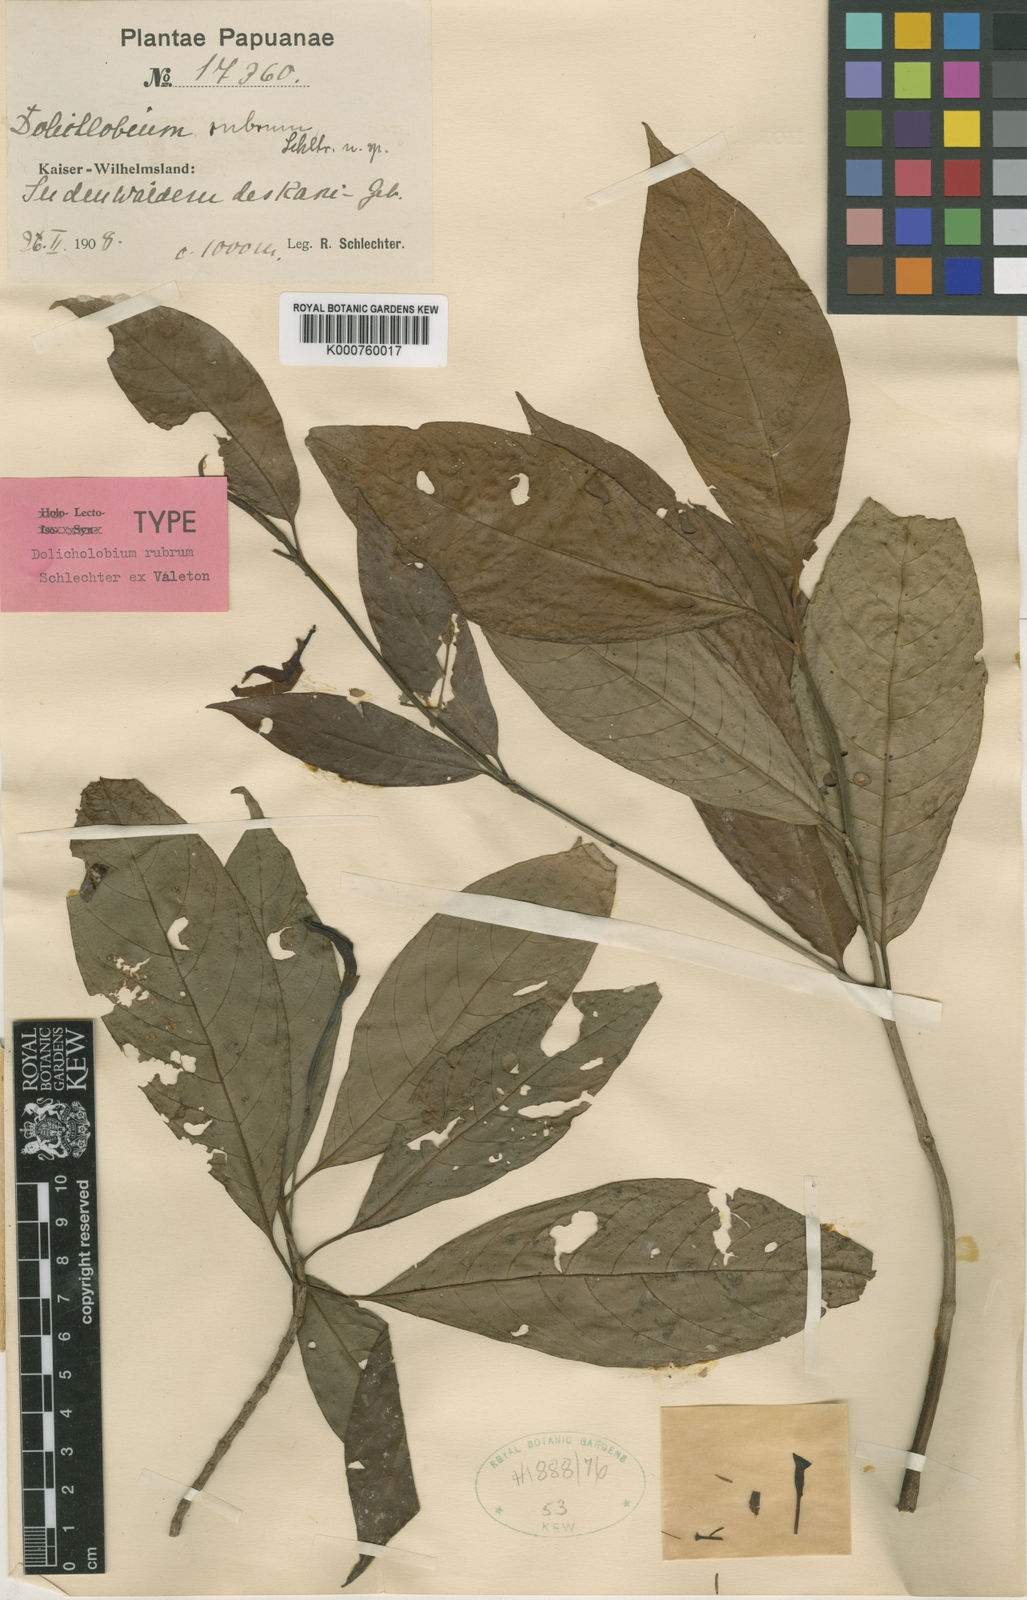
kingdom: Plantae
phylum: Tracheophyta
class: Magnoliopsida
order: Gentianales
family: Rubiaceae
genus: Dolicholobium
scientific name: Dolicholobium rubrum
